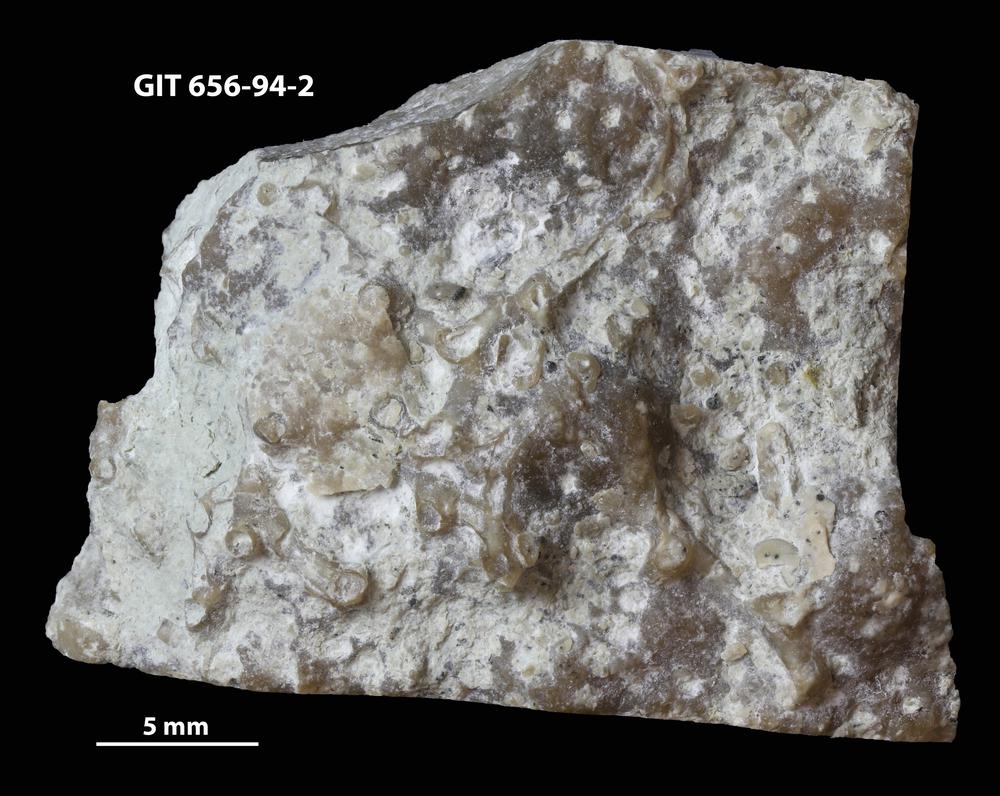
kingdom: Animalia
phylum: Cnidaria
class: Anthozoa
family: Auloporidae
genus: Aulopora
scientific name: Aulopora
